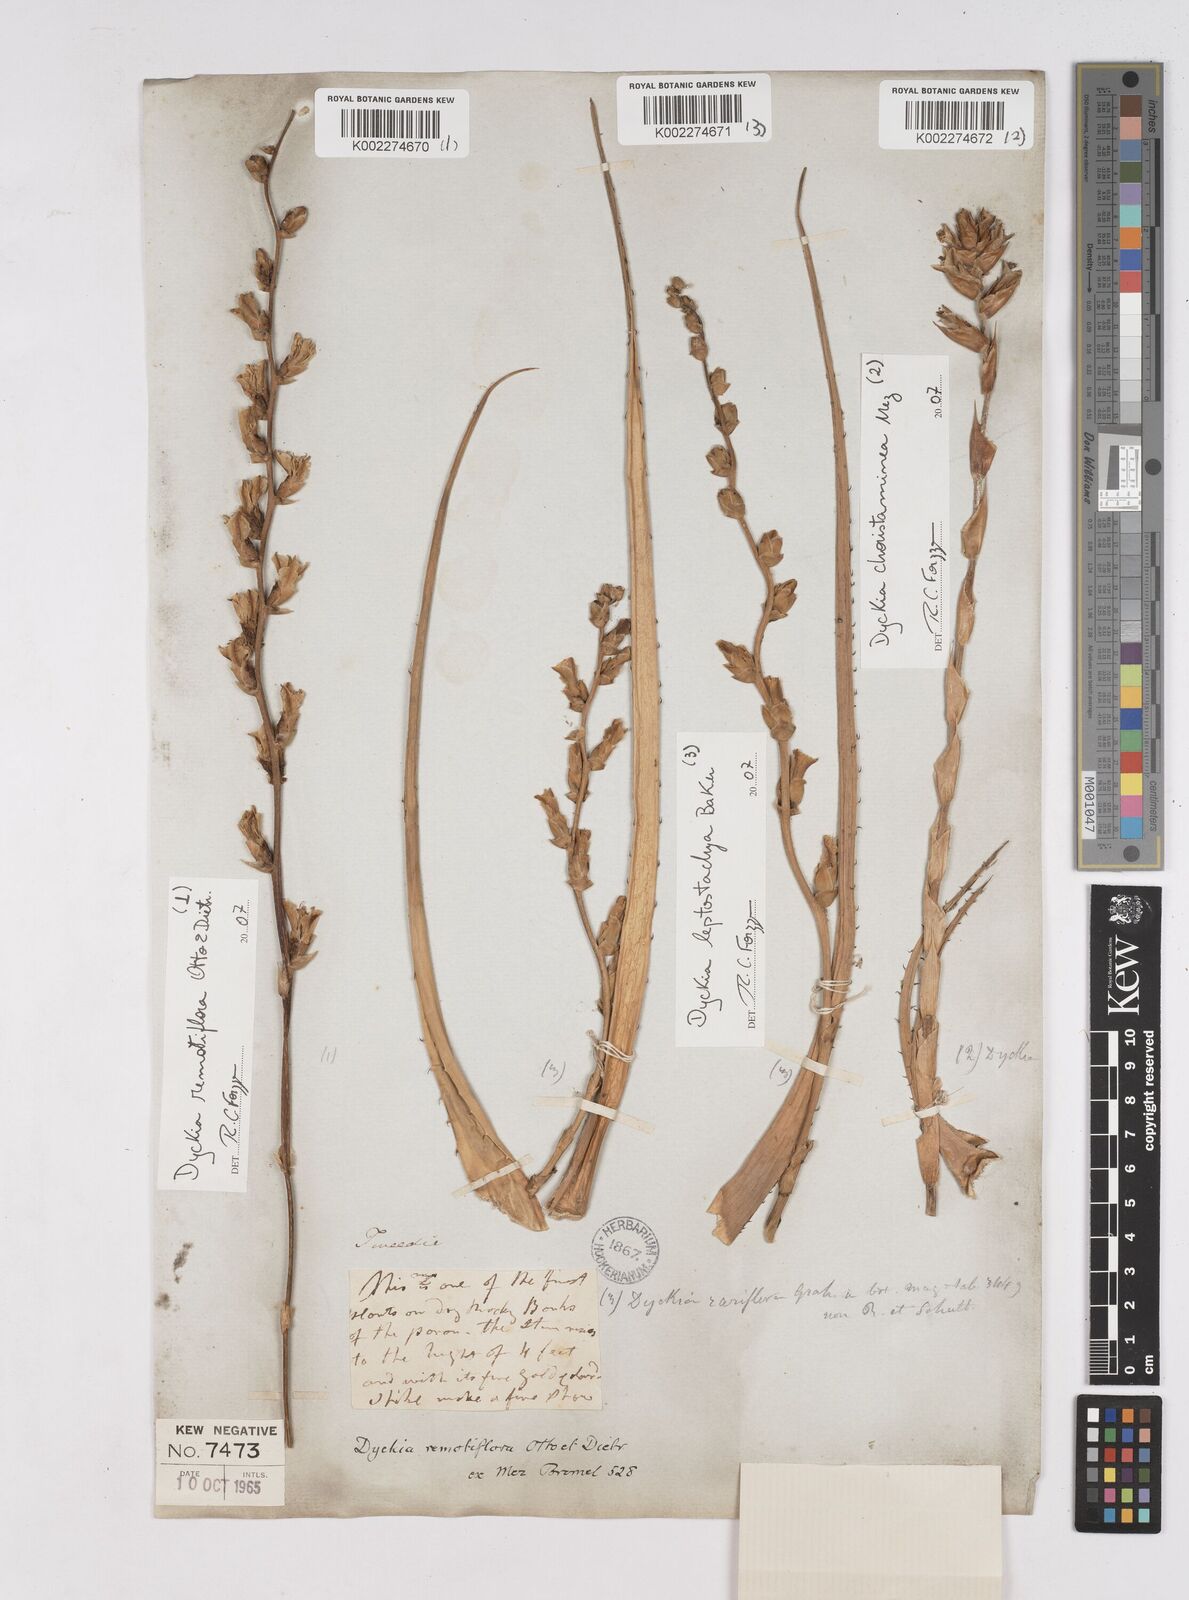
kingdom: Plantae
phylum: Tracheophyta
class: Liliopsida
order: Poales
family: Bromeliaceae
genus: Dyckia
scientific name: Dyckia remotiflora
